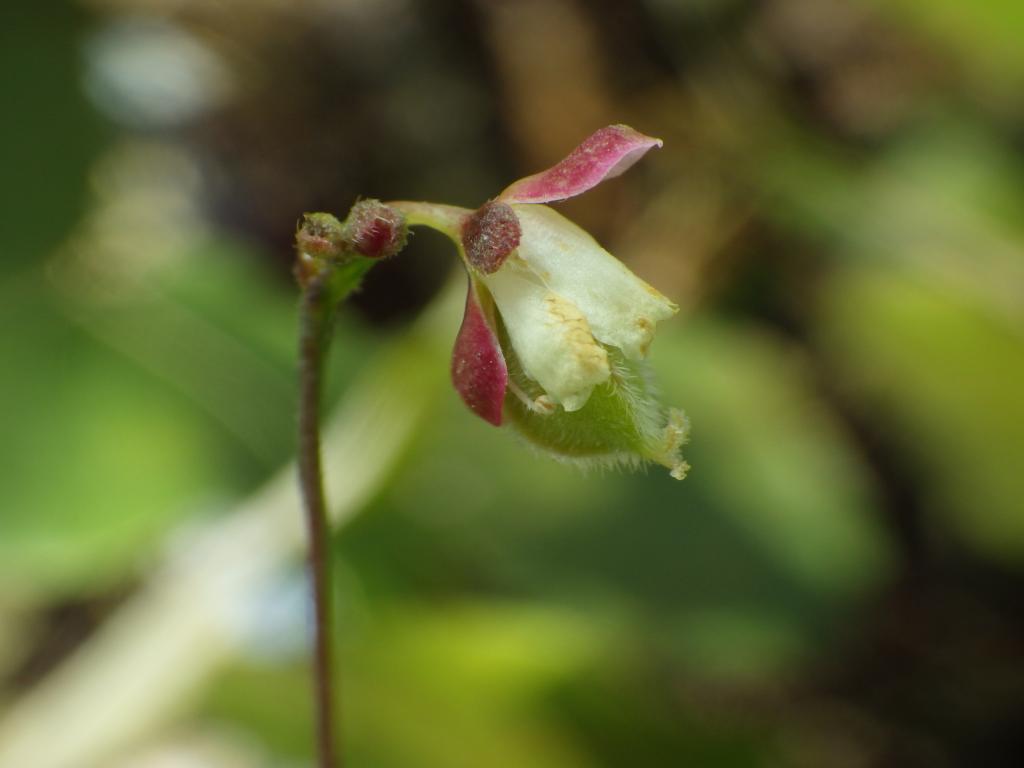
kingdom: Plantae
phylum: Tracheophyta
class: Magnoliopsida
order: Sapindales
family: Sapindaceae
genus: Cardiospermum
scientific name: Cardiospermum halicacabum
